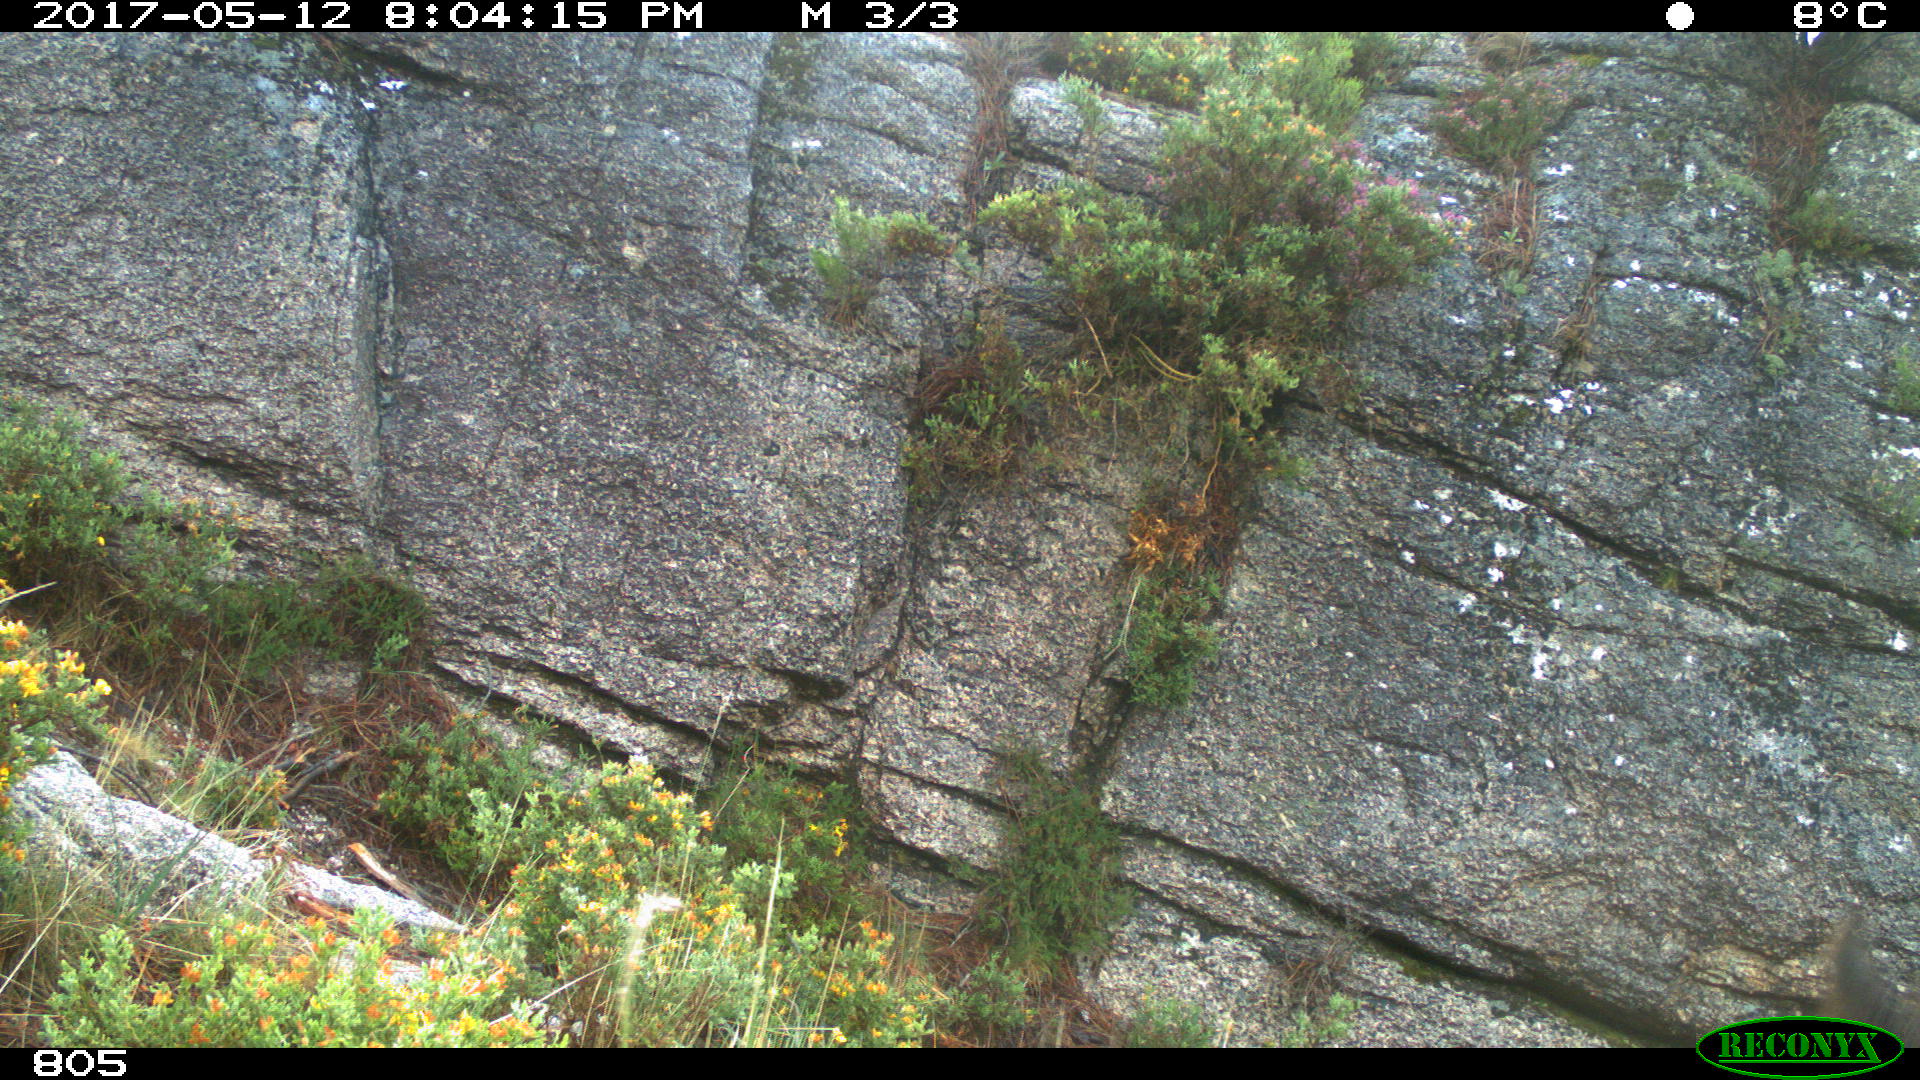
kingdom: Animalia
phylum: Chordata
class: Mammalia
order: Perissodactyla
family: Equidae
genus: Equus
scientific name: Equus caballus
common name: Horse
